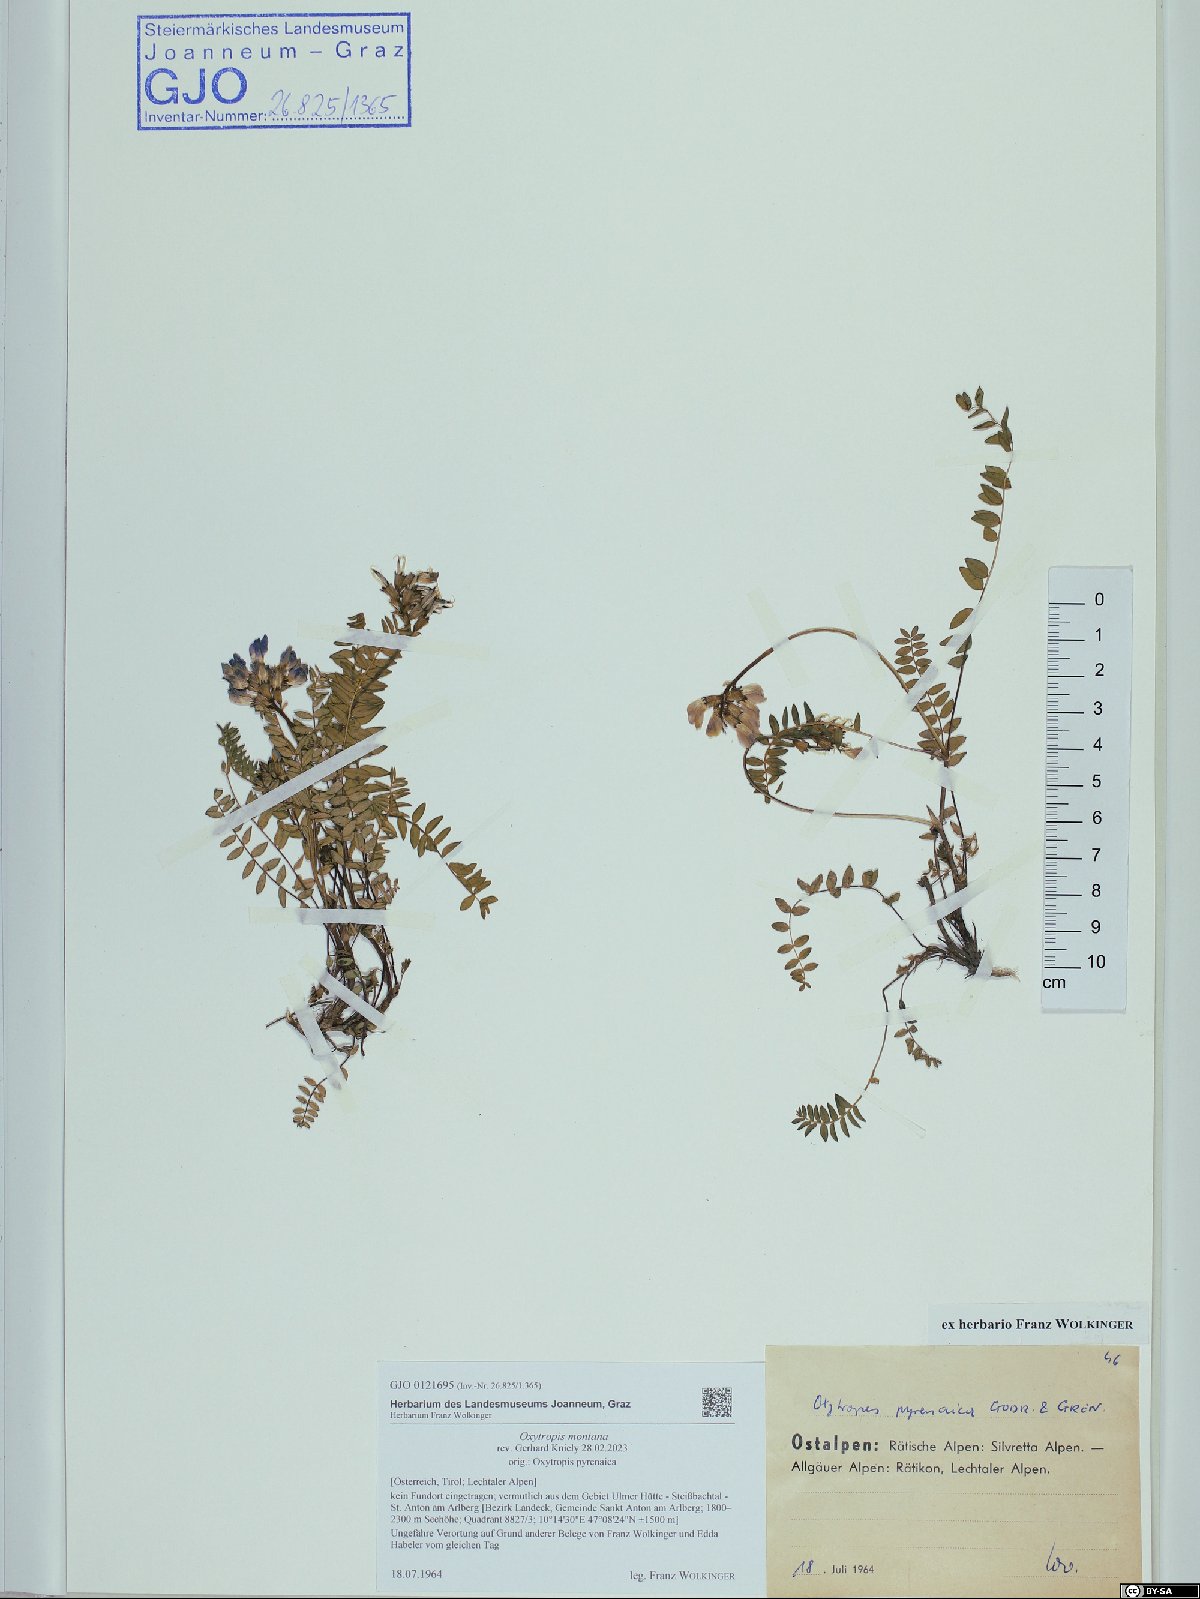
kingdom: Plantae
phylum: Tracheophyta
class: Magnoliopsida
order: Fabales
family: Fabaceae
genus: Oxytropis
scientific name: Oxytropis montana
